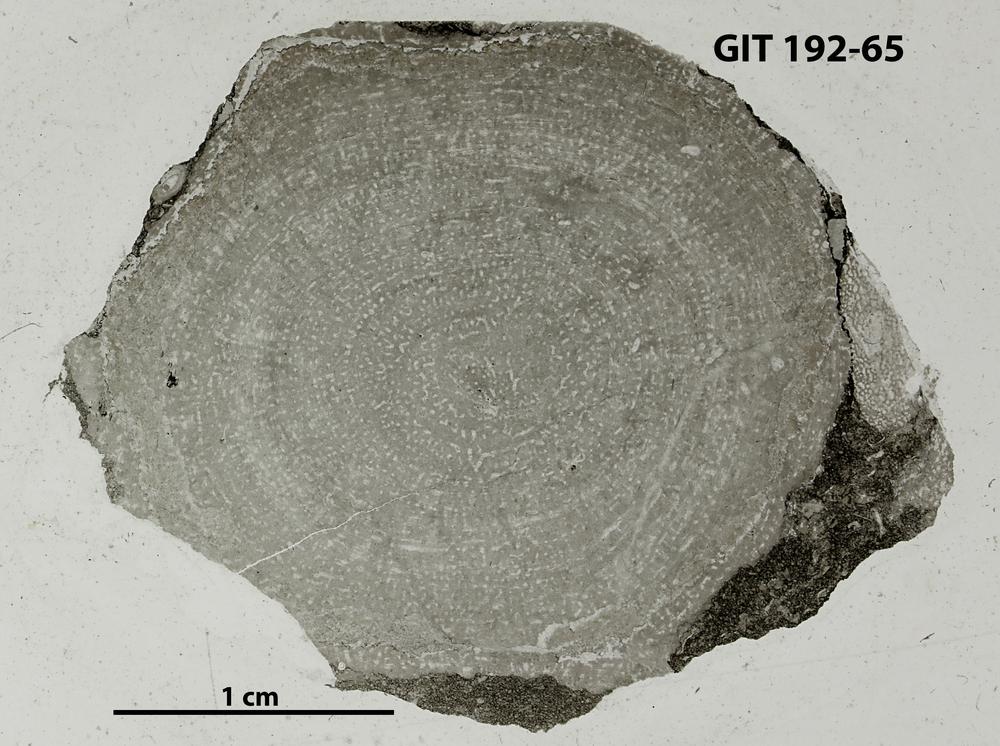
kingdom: Animalia
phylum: Porifera
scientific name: Porifera
